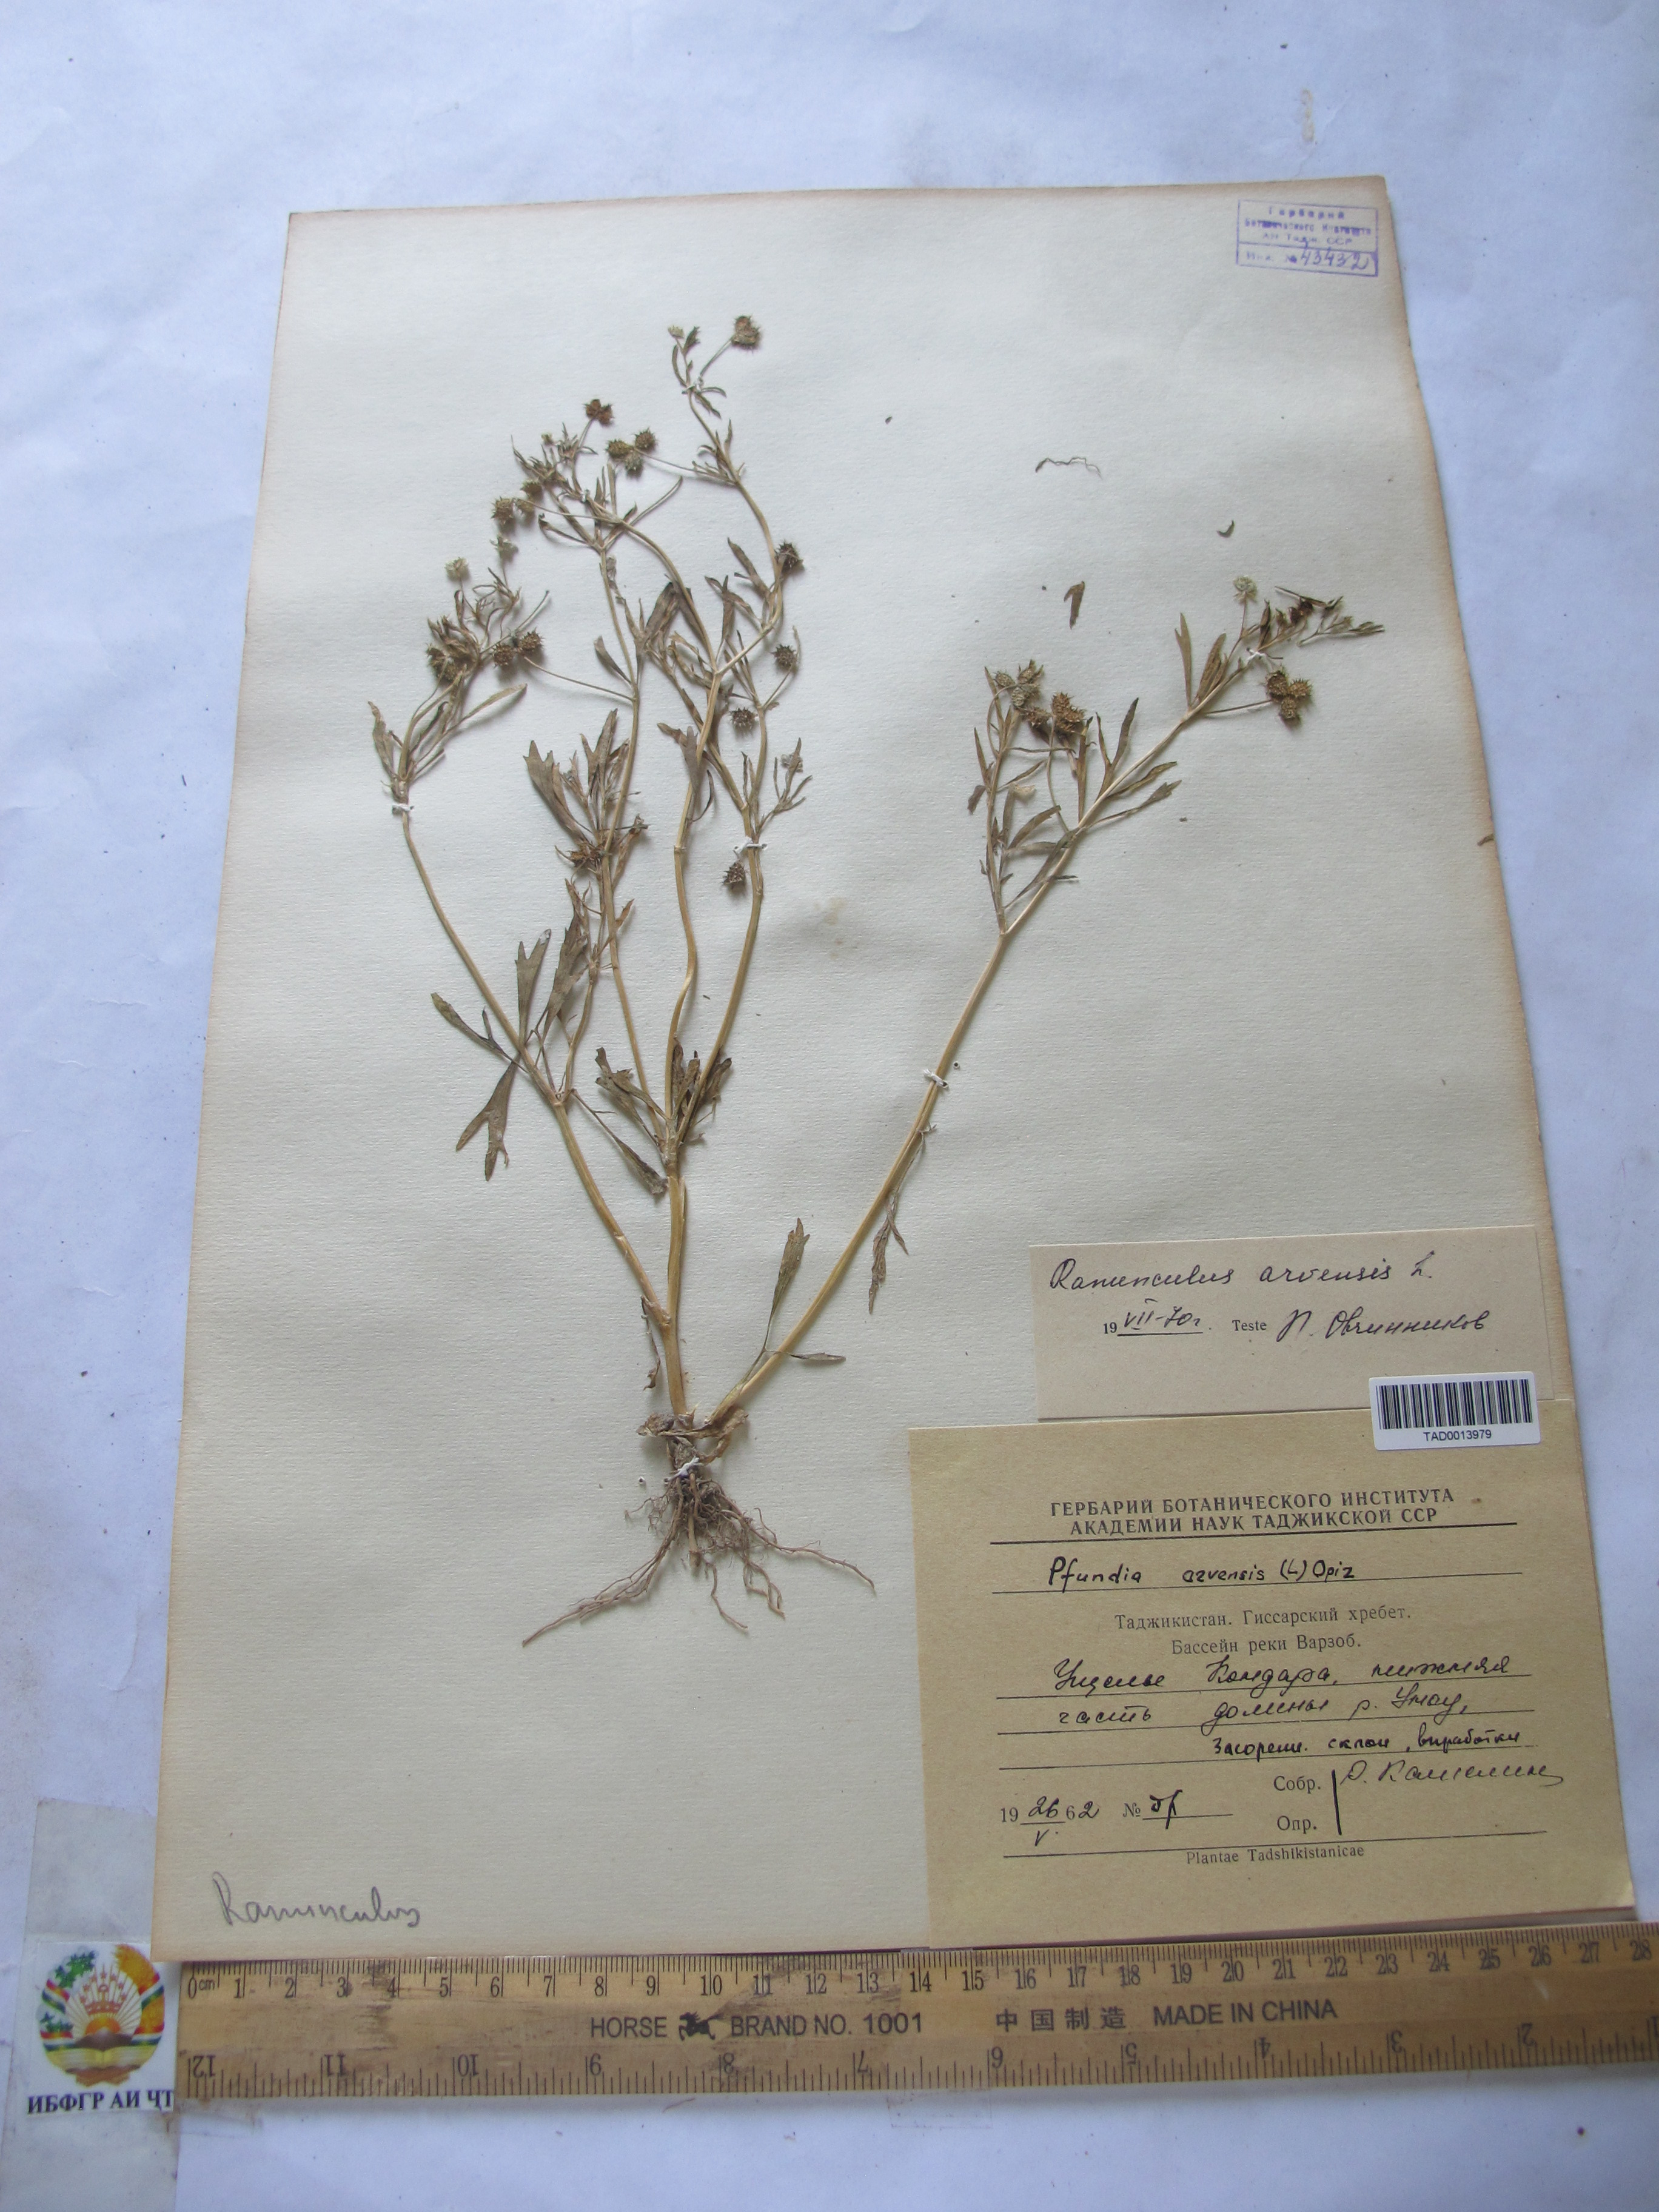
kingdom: Plantae
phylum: Tracheophyta
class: Magnoliopsida
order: Ranunculales
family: Ranunculaceae
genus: Ranunculus
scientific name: Ranunculus arvensis
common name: Corn buttercup
